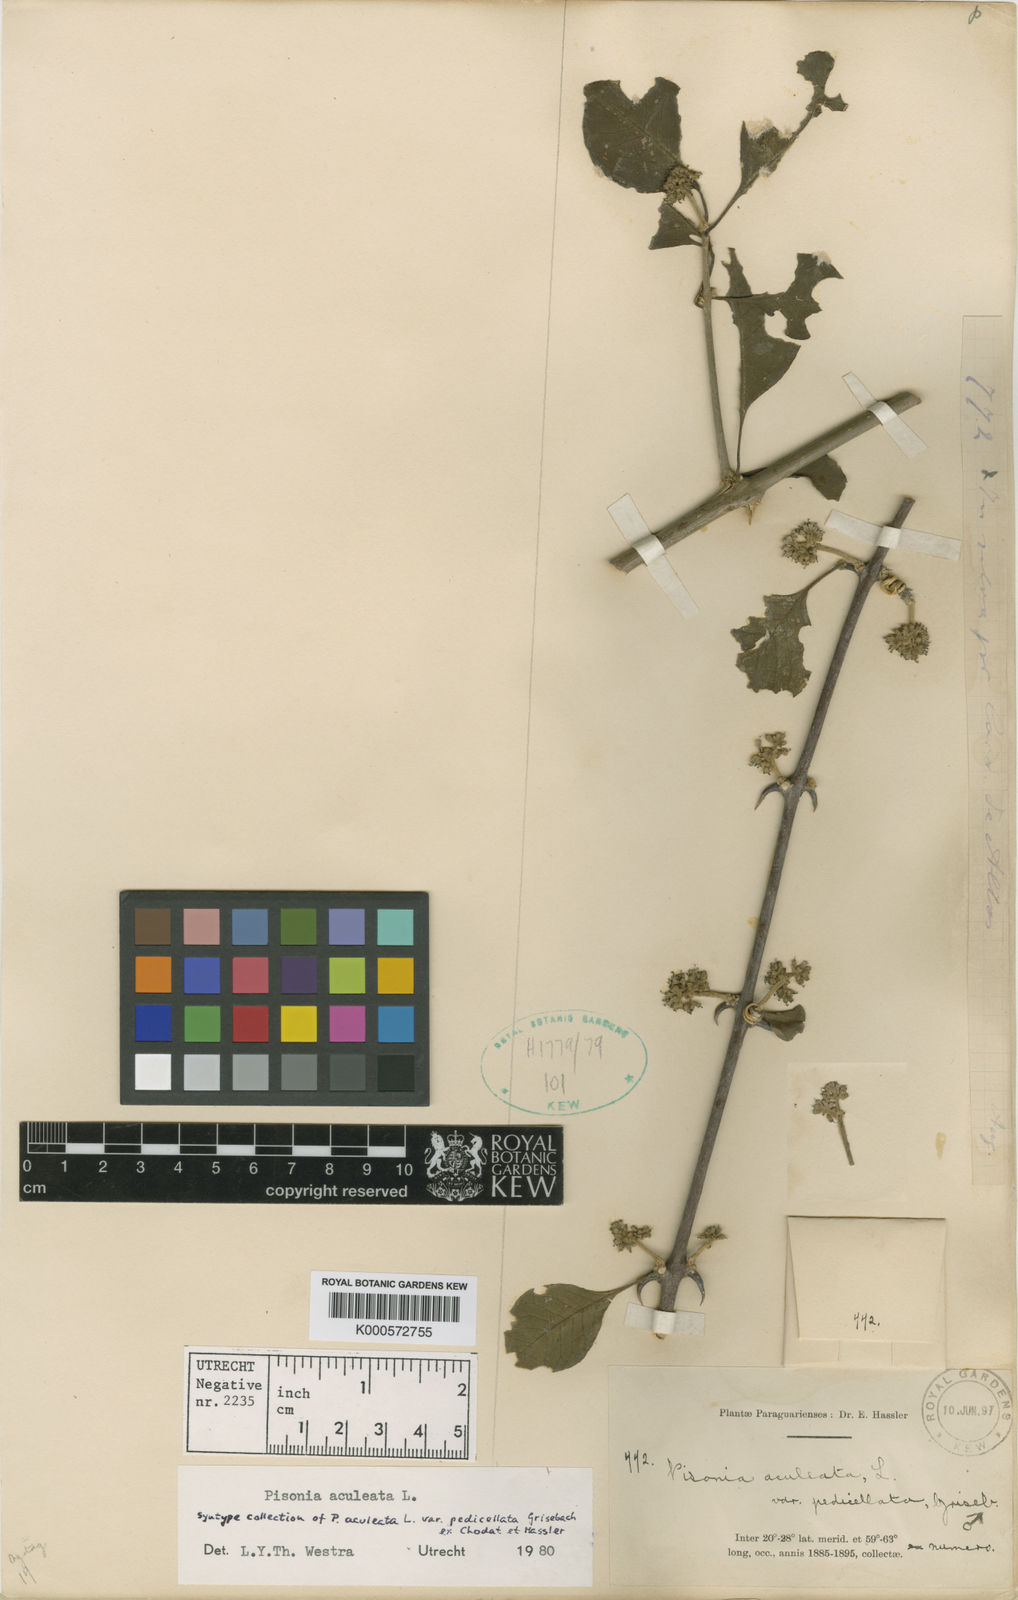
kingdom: Plantae
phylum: Tracheophyta
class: Magnoliopsida
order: Caryophyllales
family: Nyctaginaceae
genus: Pisonia
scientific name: Pisonia aculeata
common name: Cockspur vine
